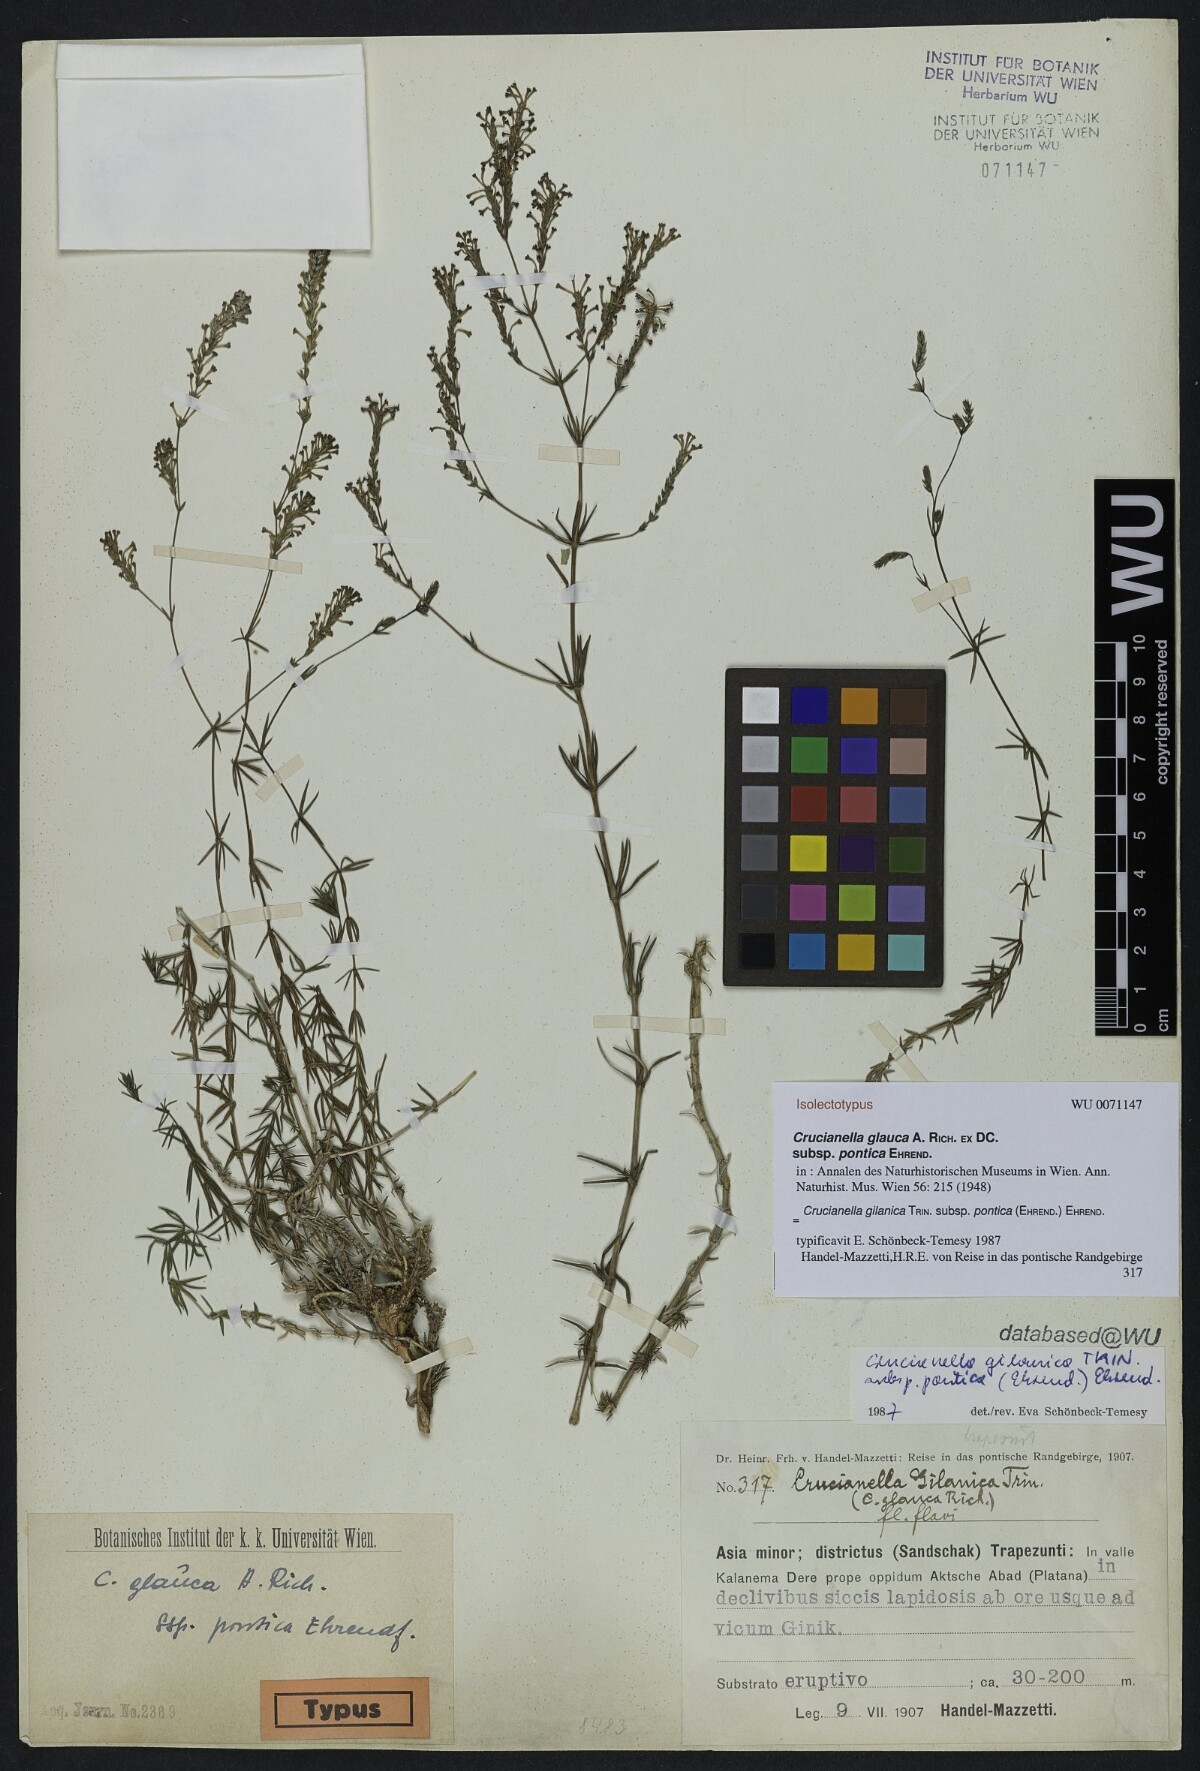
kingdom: Plantae
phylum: Tracheophyta
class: Magnoliopsida
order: Gentianales
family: Rubiaceae
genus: Crucianella
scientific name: Crucianella gilanica
